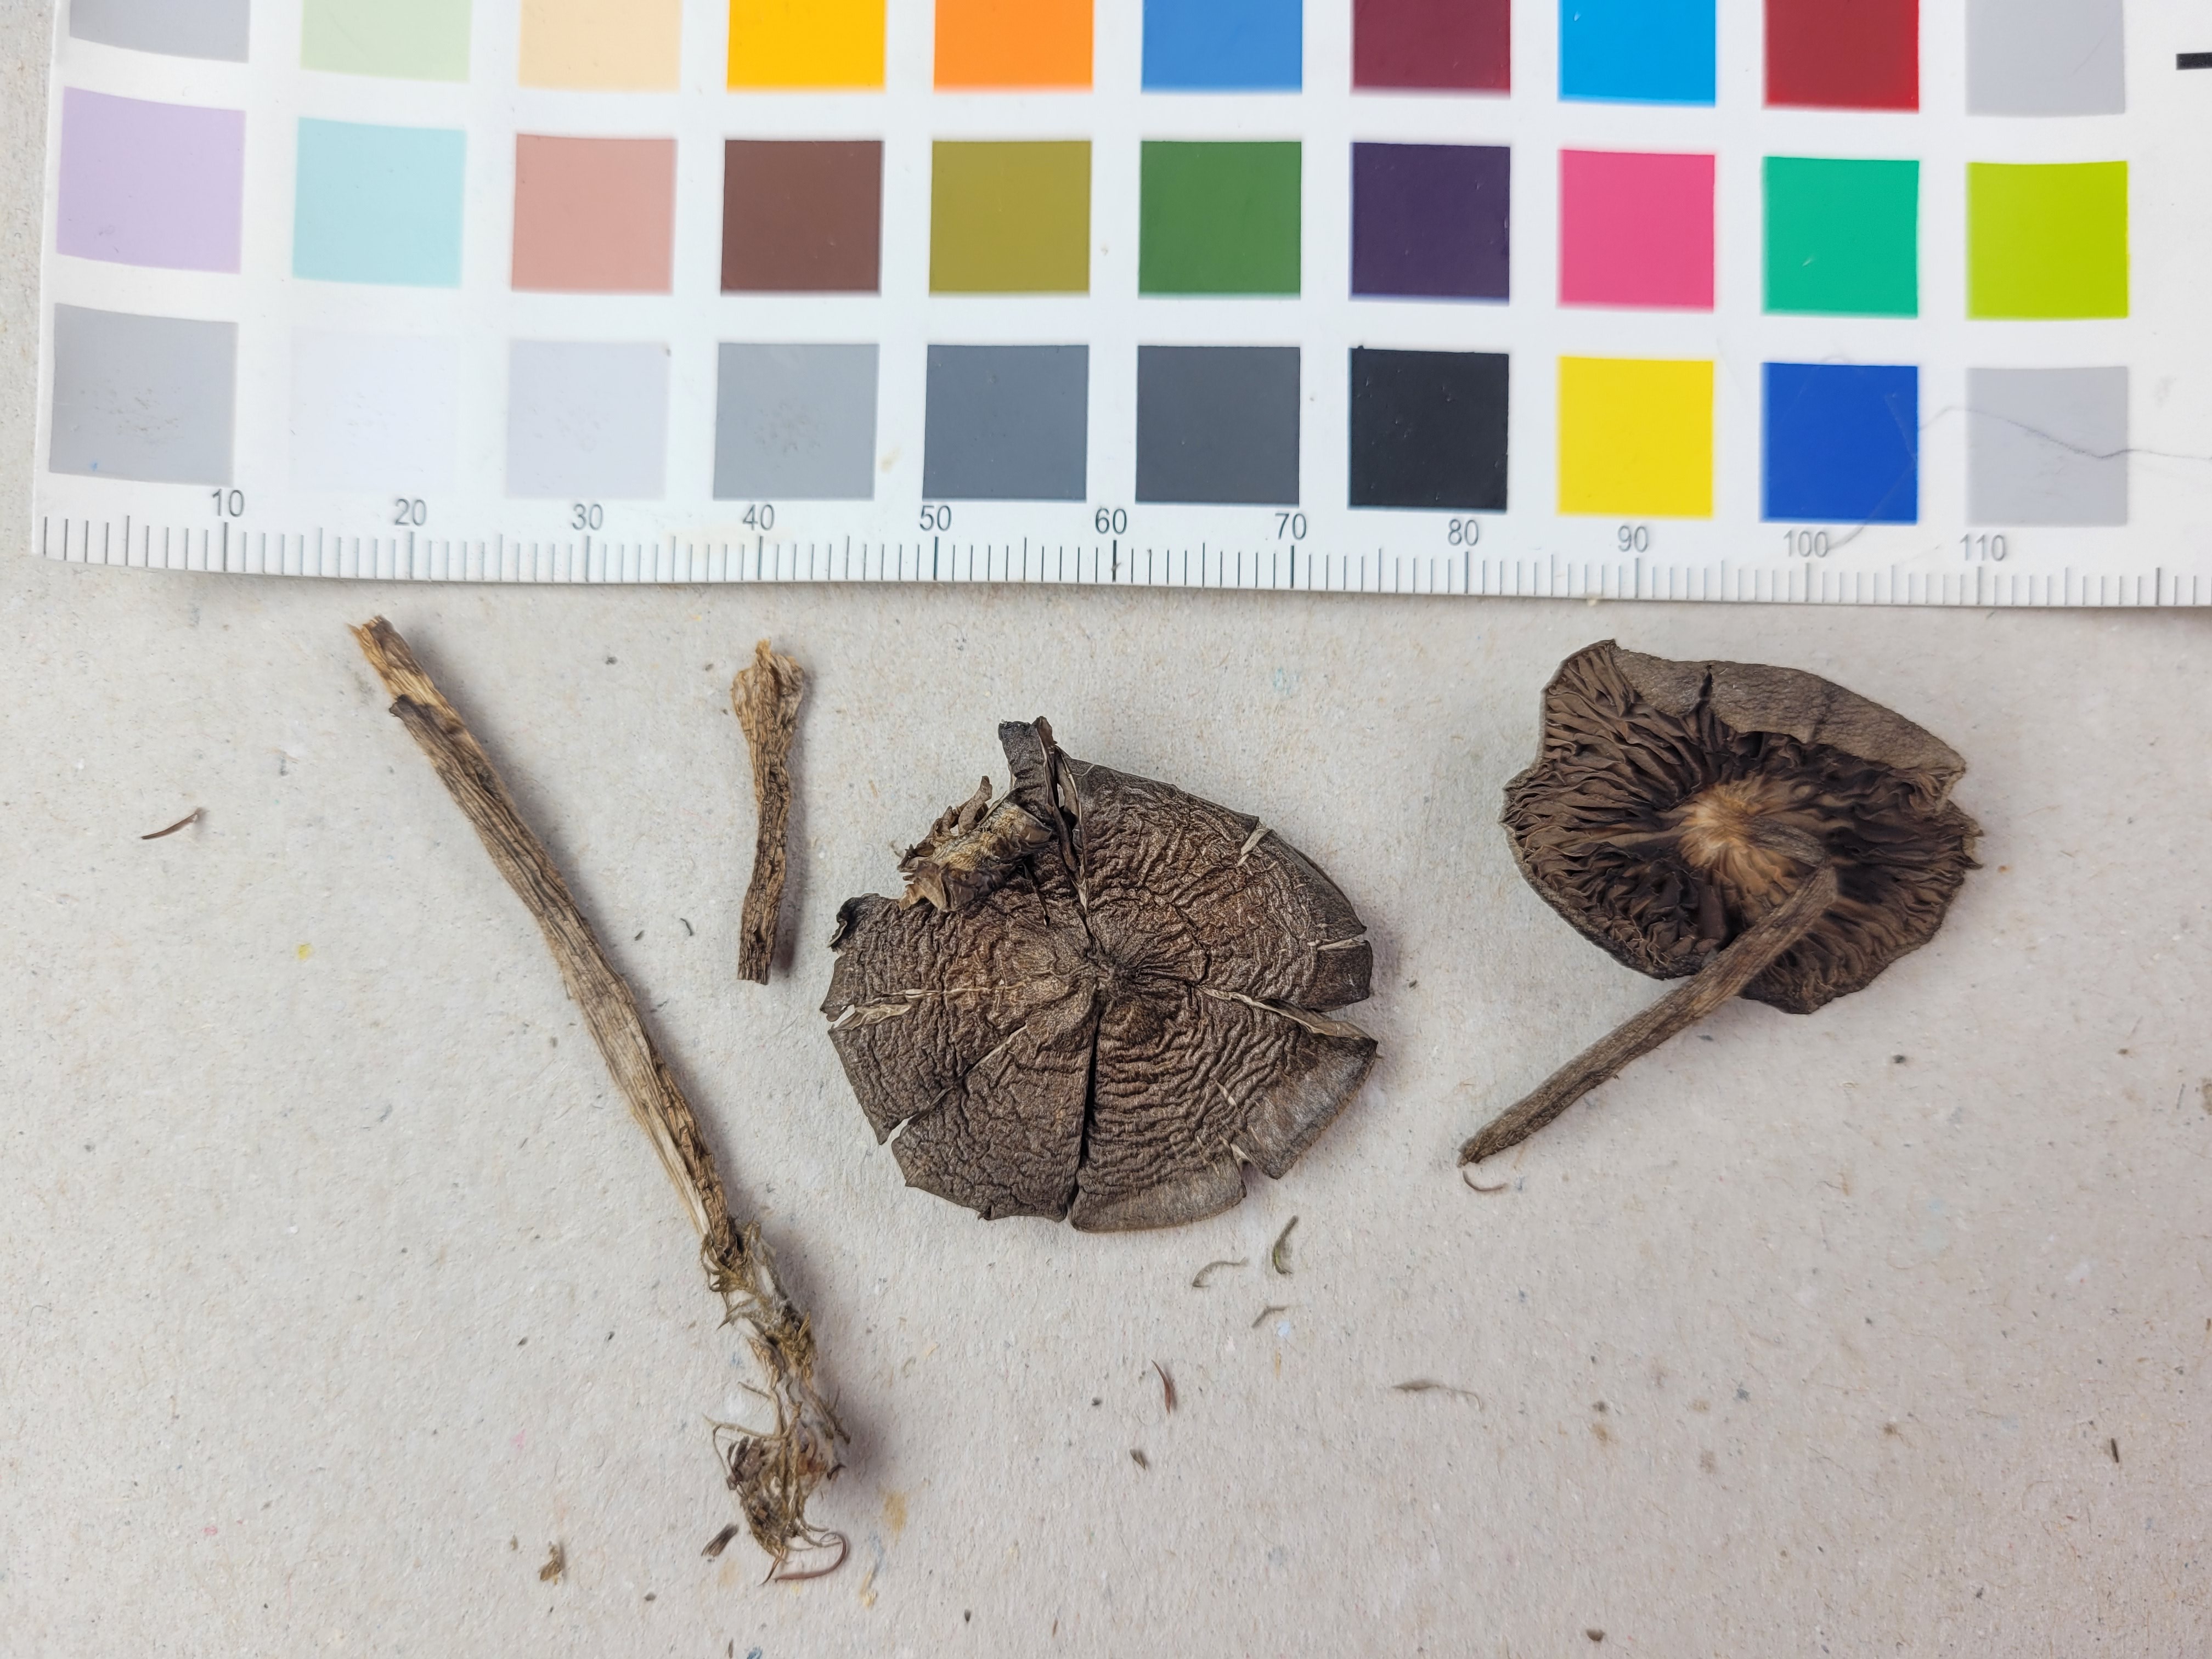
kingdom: Fungi
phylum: Basidiomycota
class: Agaricomycetes
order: Agaricales
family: Entolomataceae
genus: Entoloma
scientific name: Entoloma jubatum
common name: Sepia pinkgill
